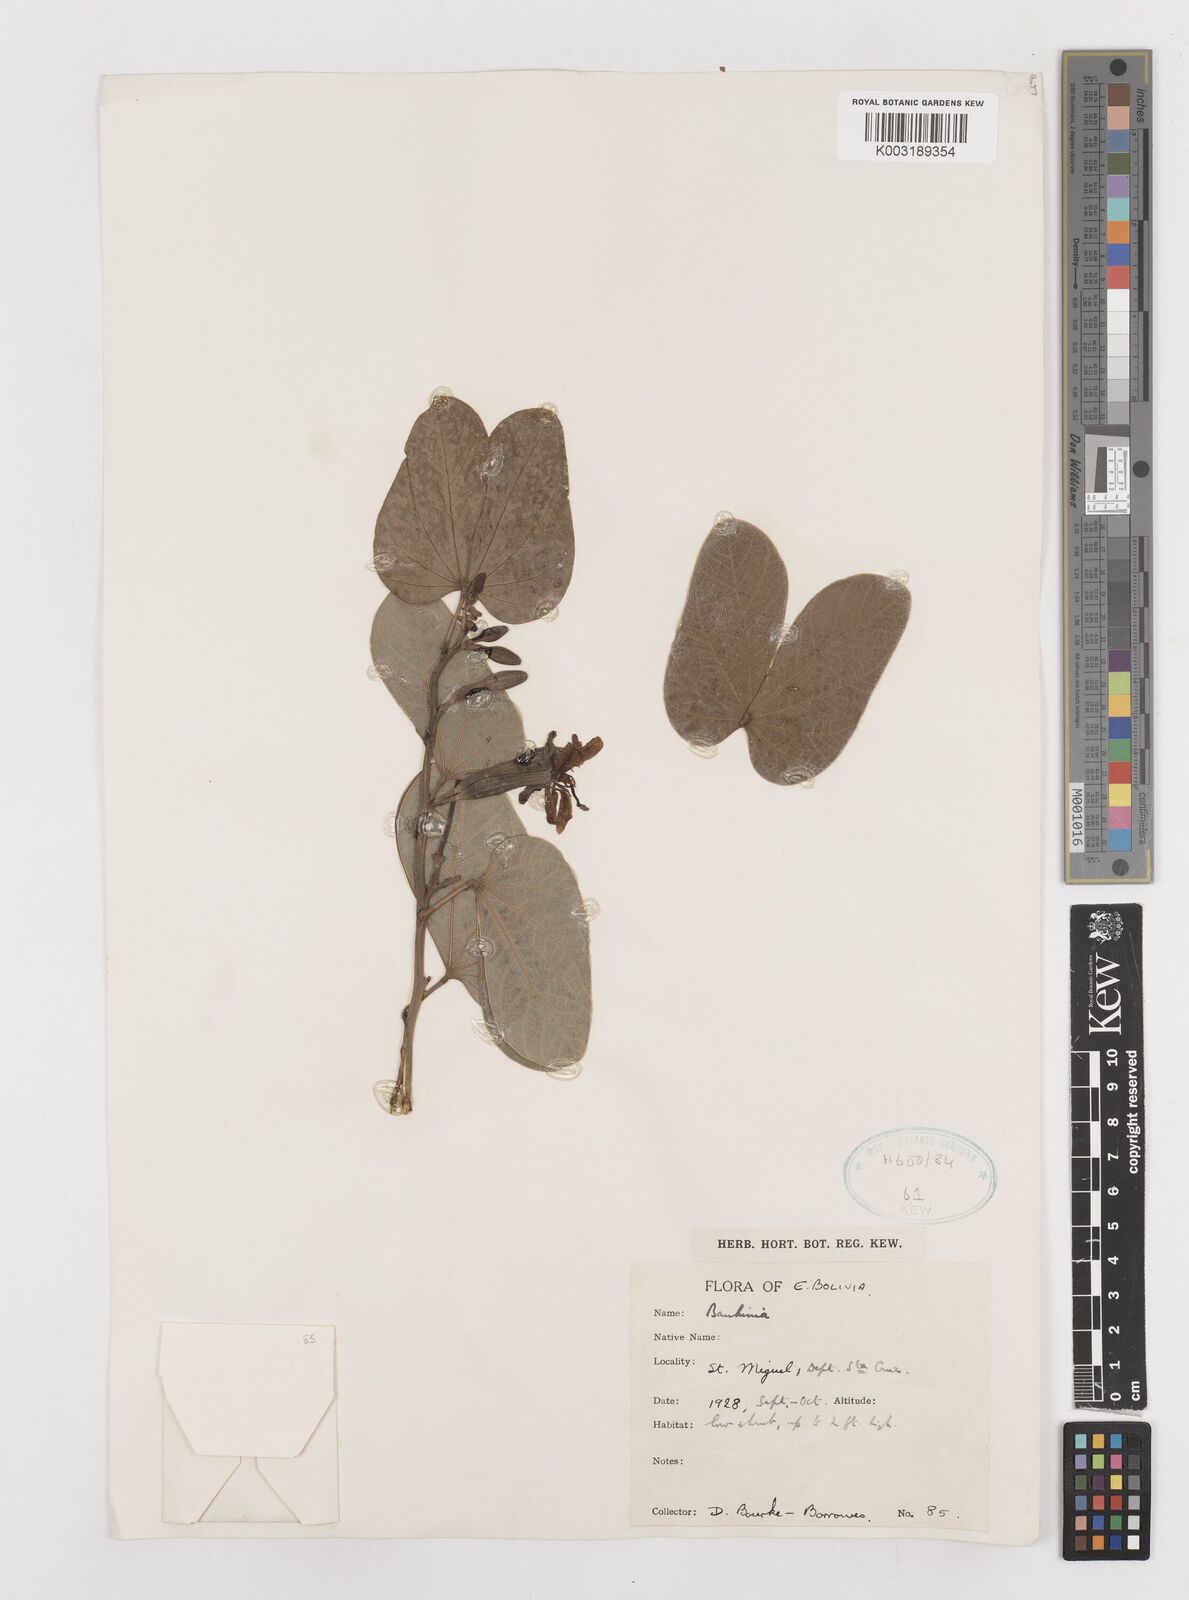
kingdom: Plantae
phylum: Tracheophyta
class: Magnoliopsida
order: Fabales
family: Fabaceae
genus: Bauhinia
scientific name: Bauhinia
